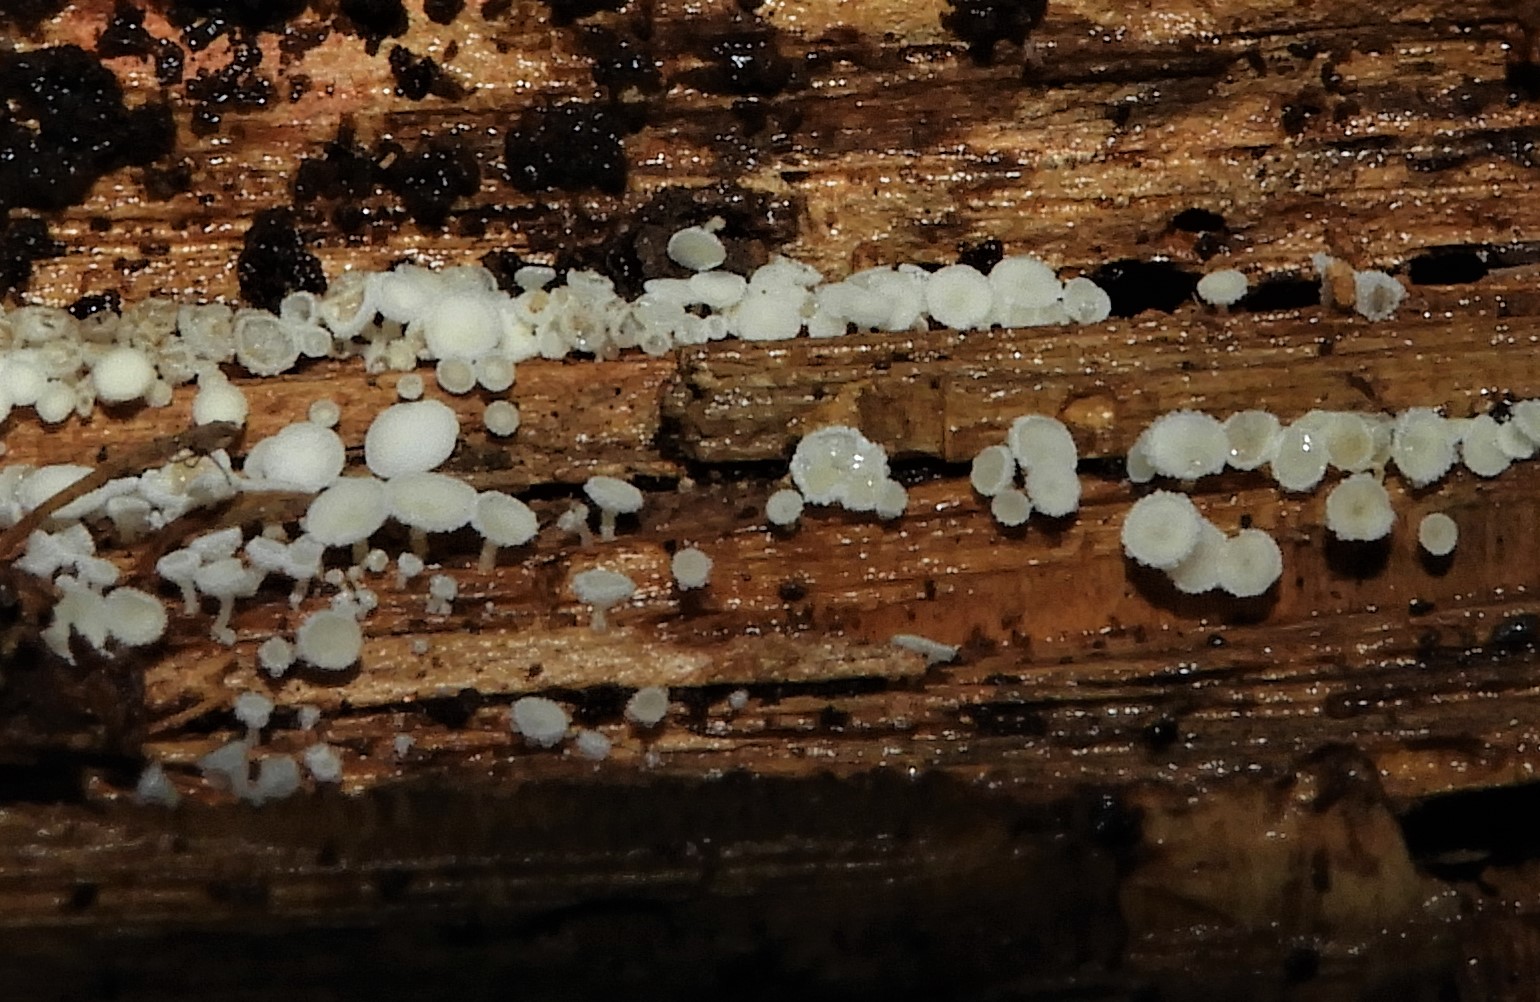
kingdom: Fungi
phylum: Ascomycota
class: Leotiomycetes
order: Helotiales
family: Hyaloscyphaceae
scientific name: Hyaloscyphaceae
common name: frynseskivefamilien
